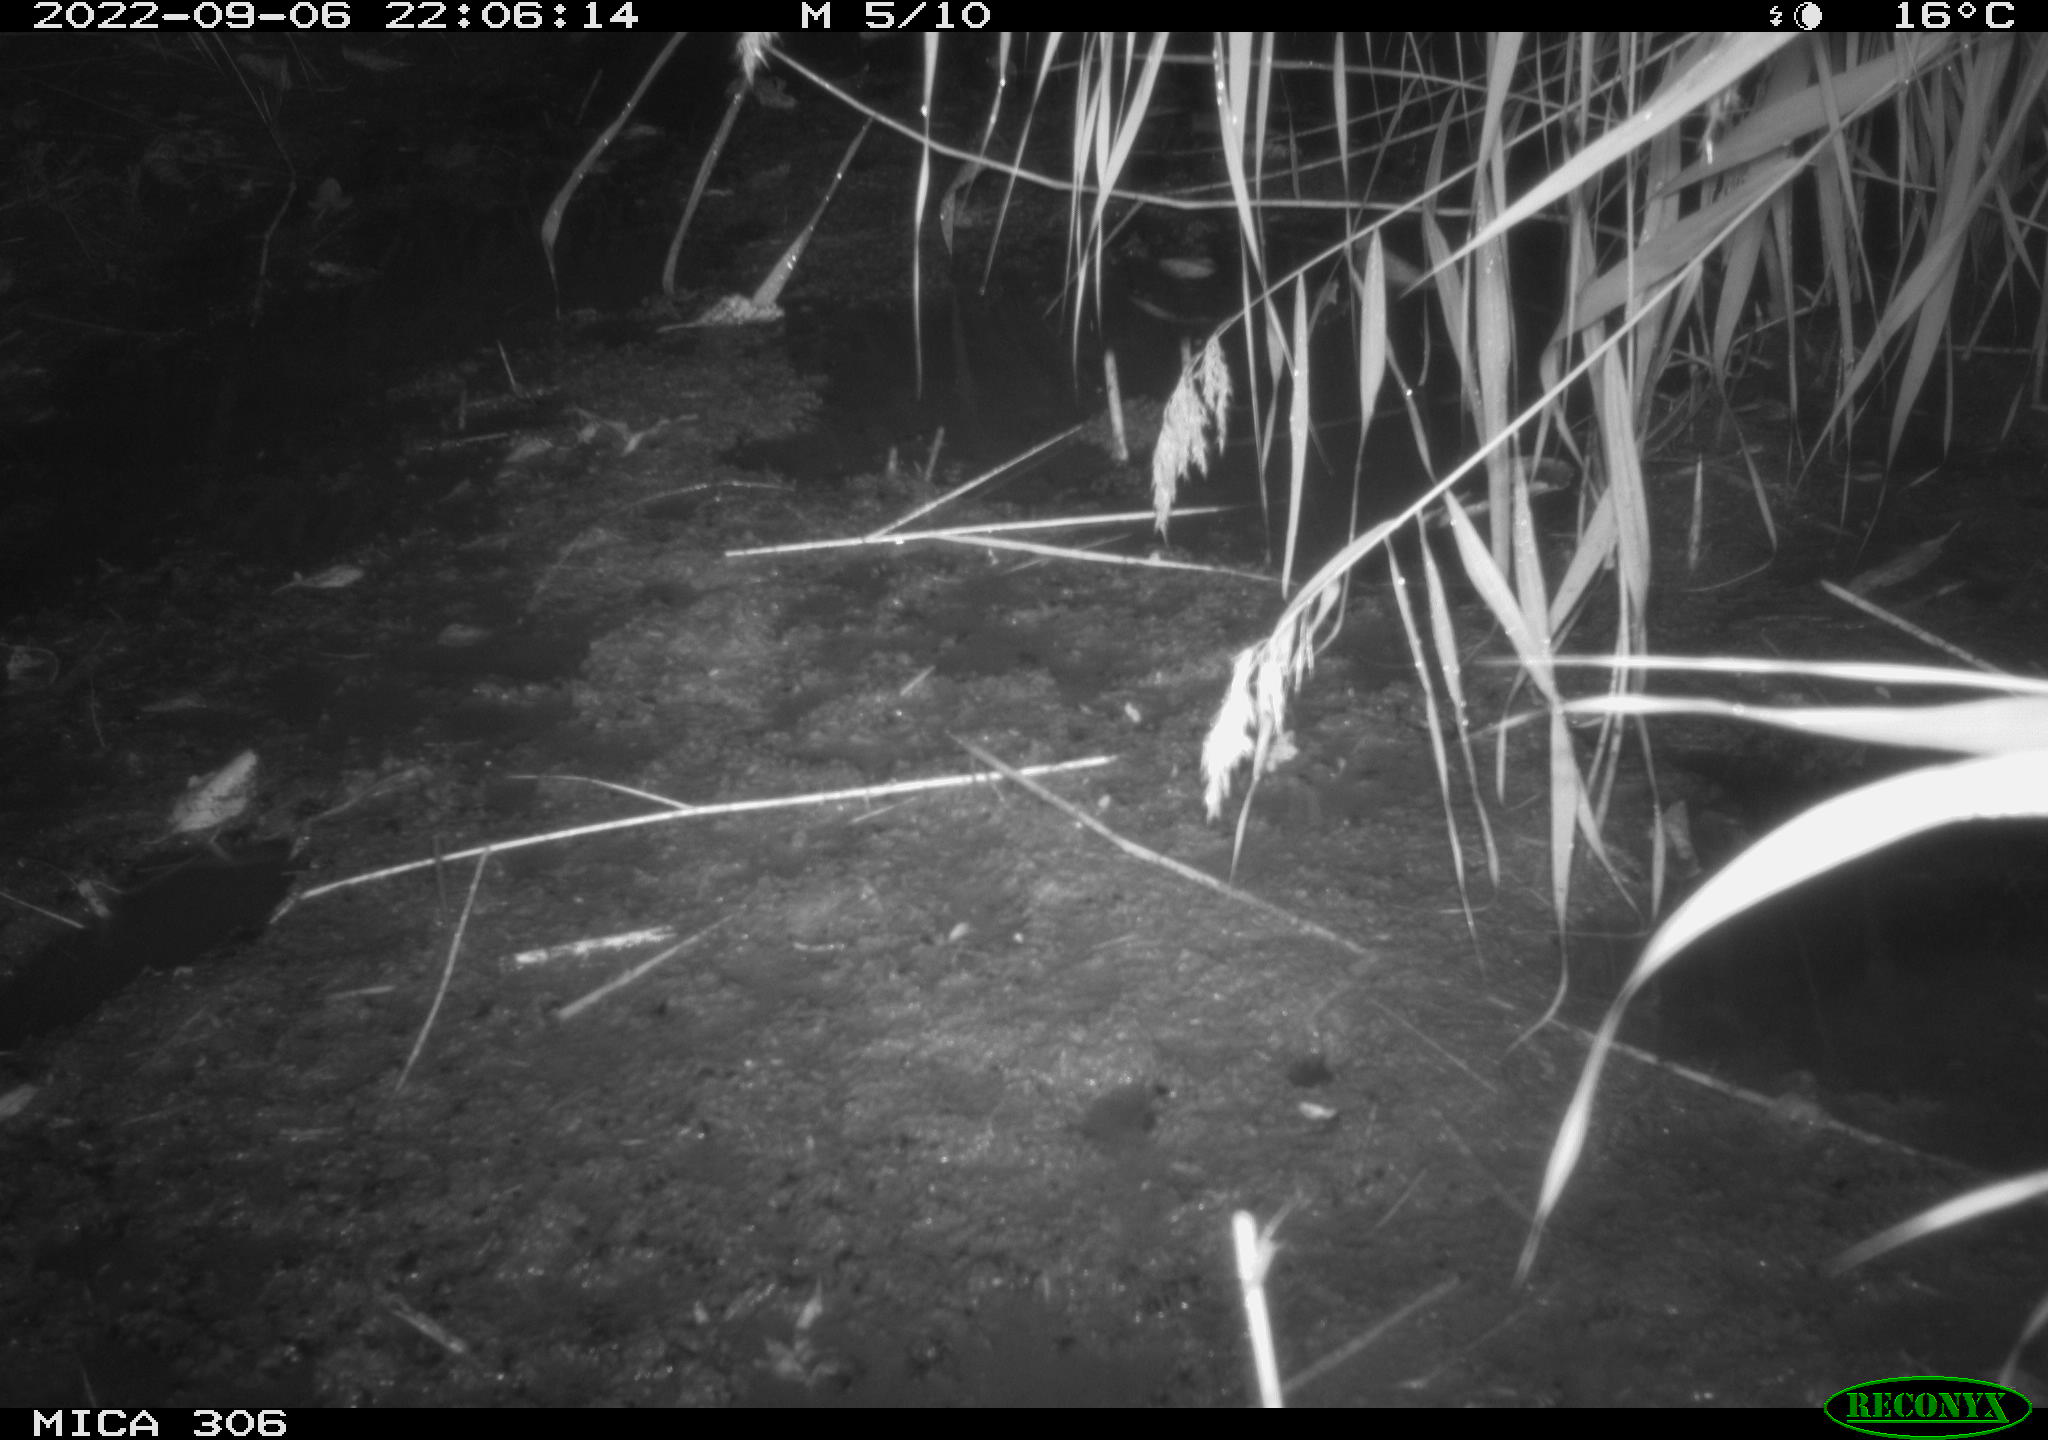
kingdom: Animalia
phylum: Chordata
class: Mammalia
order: Rodentia
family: Muridae
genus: Rattus
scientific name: Rattus norvegicus
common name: Brown rat
